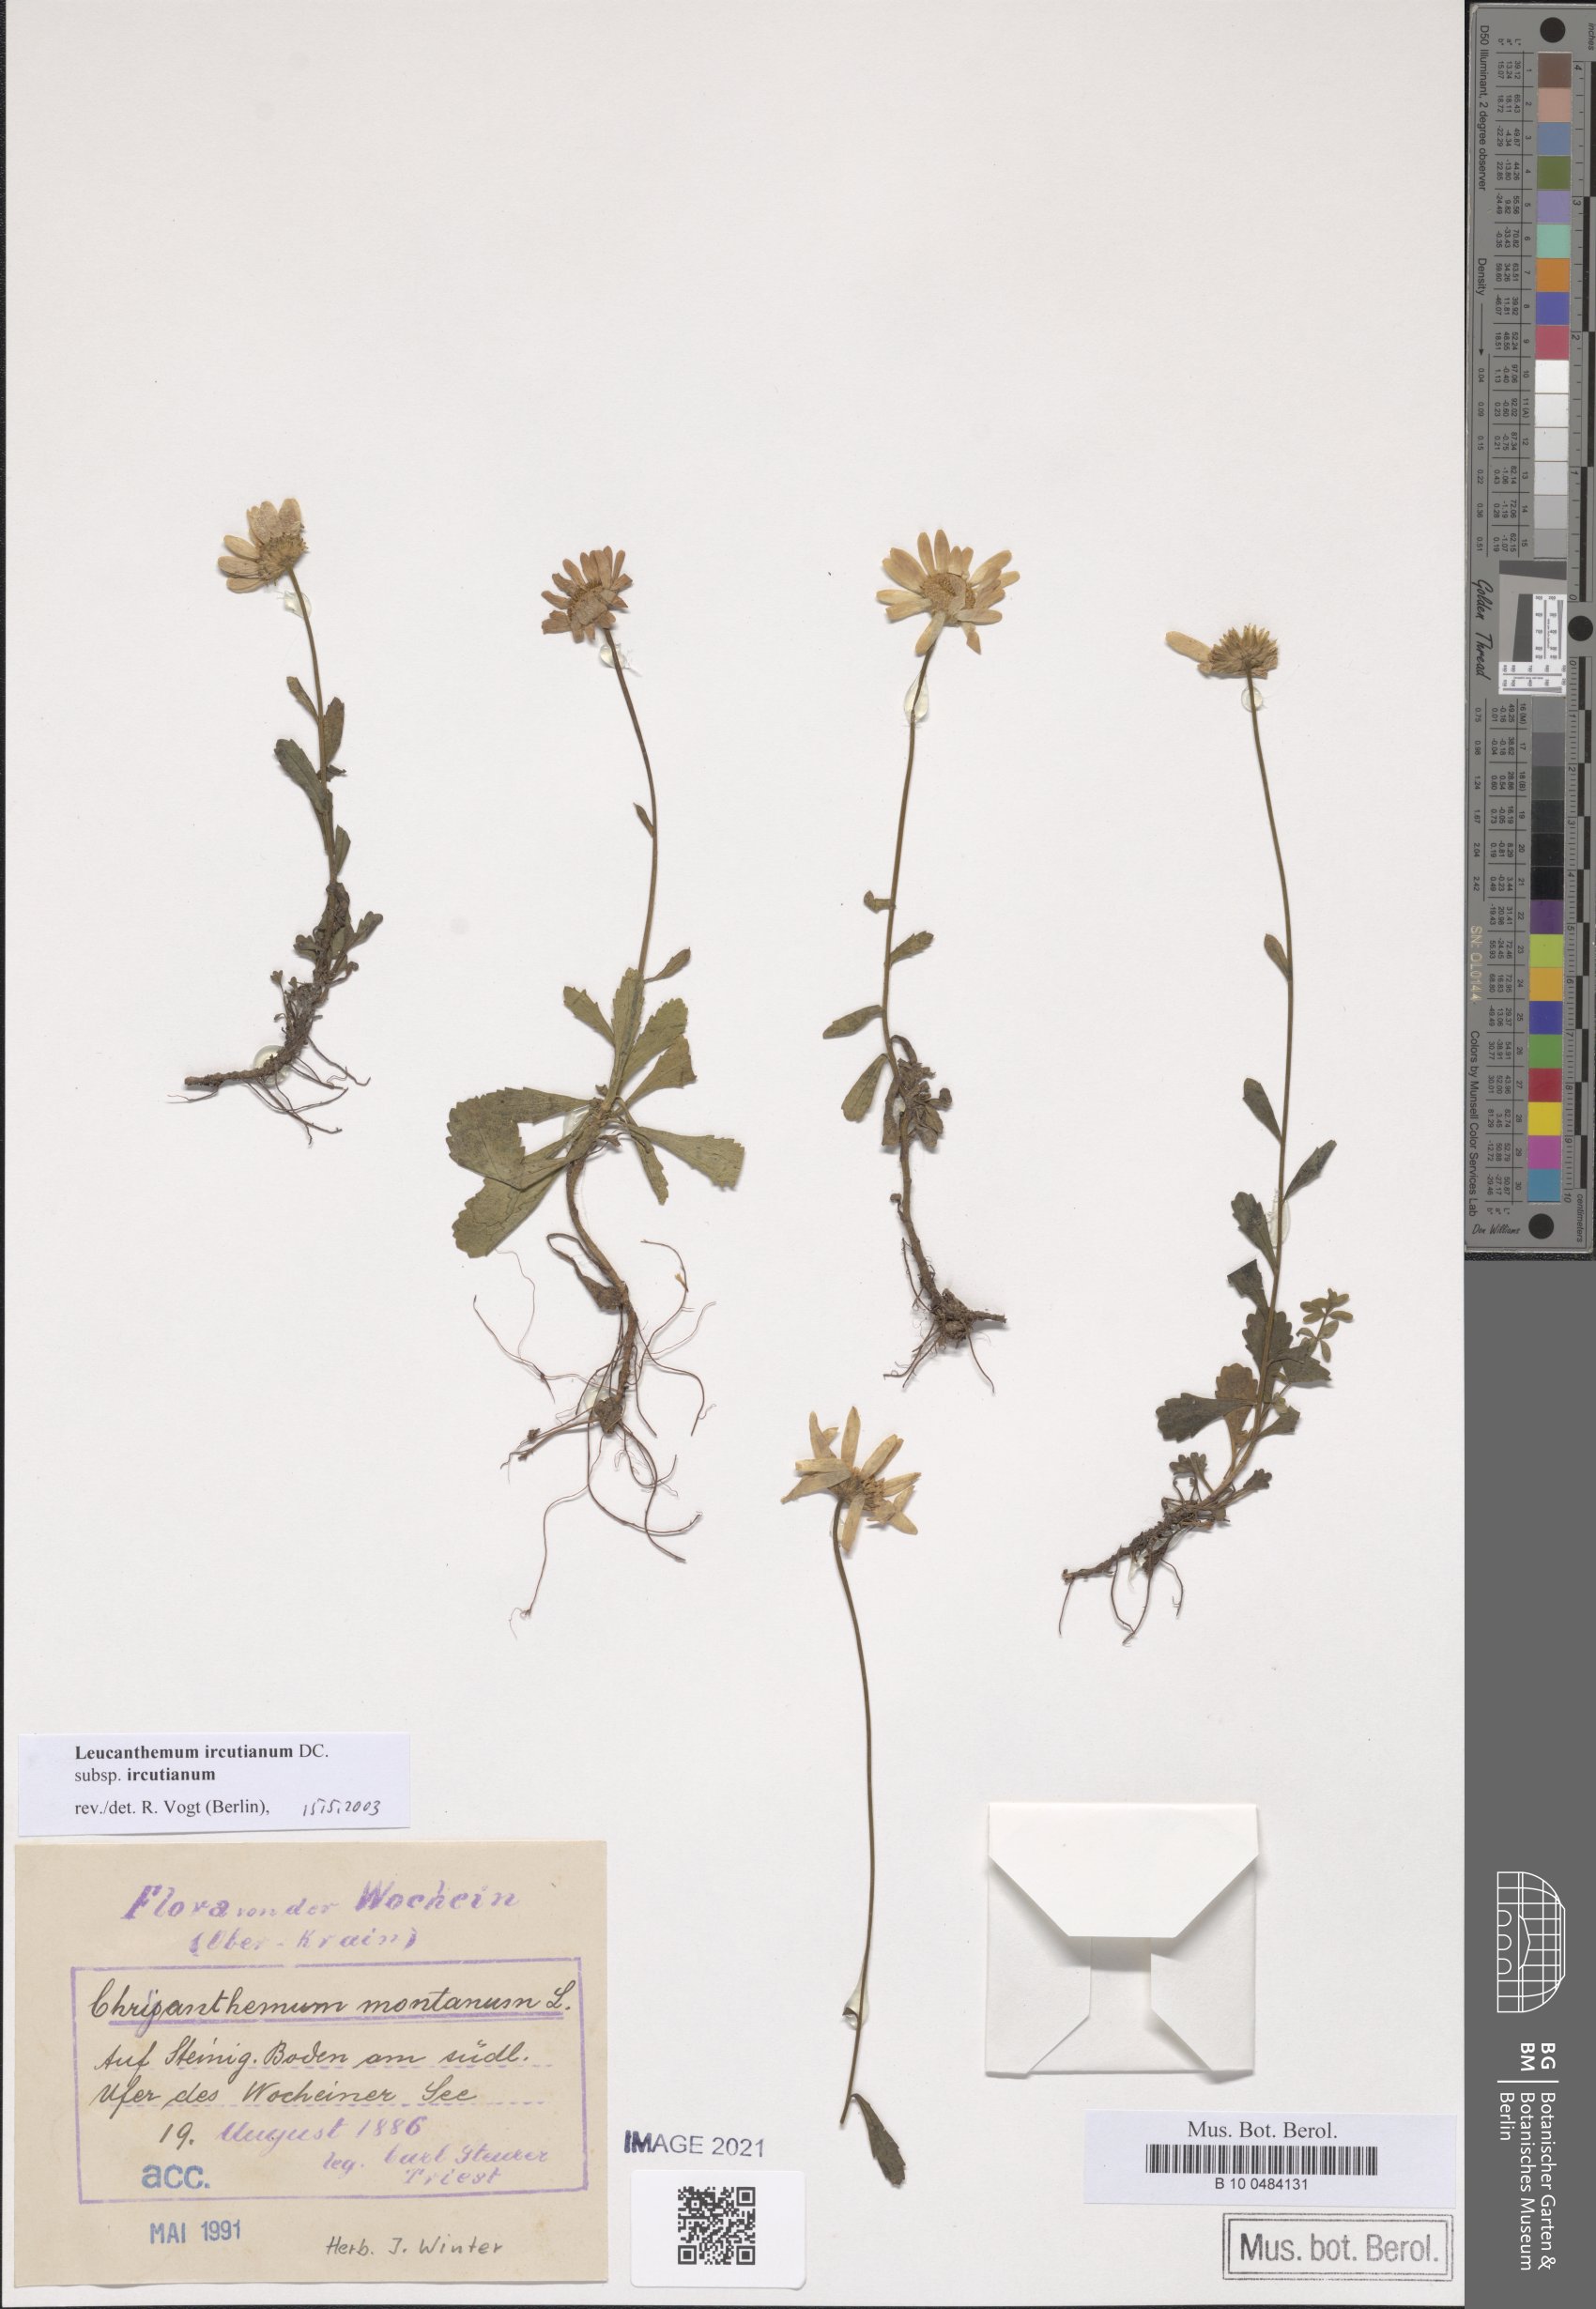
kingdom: Plantae
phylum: Tracheophyta
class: Magnoliopsida
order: Asterales
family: Asteraceae
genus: Leucanthemum
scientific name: Leucanthemum ircutianum
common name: Daisy
